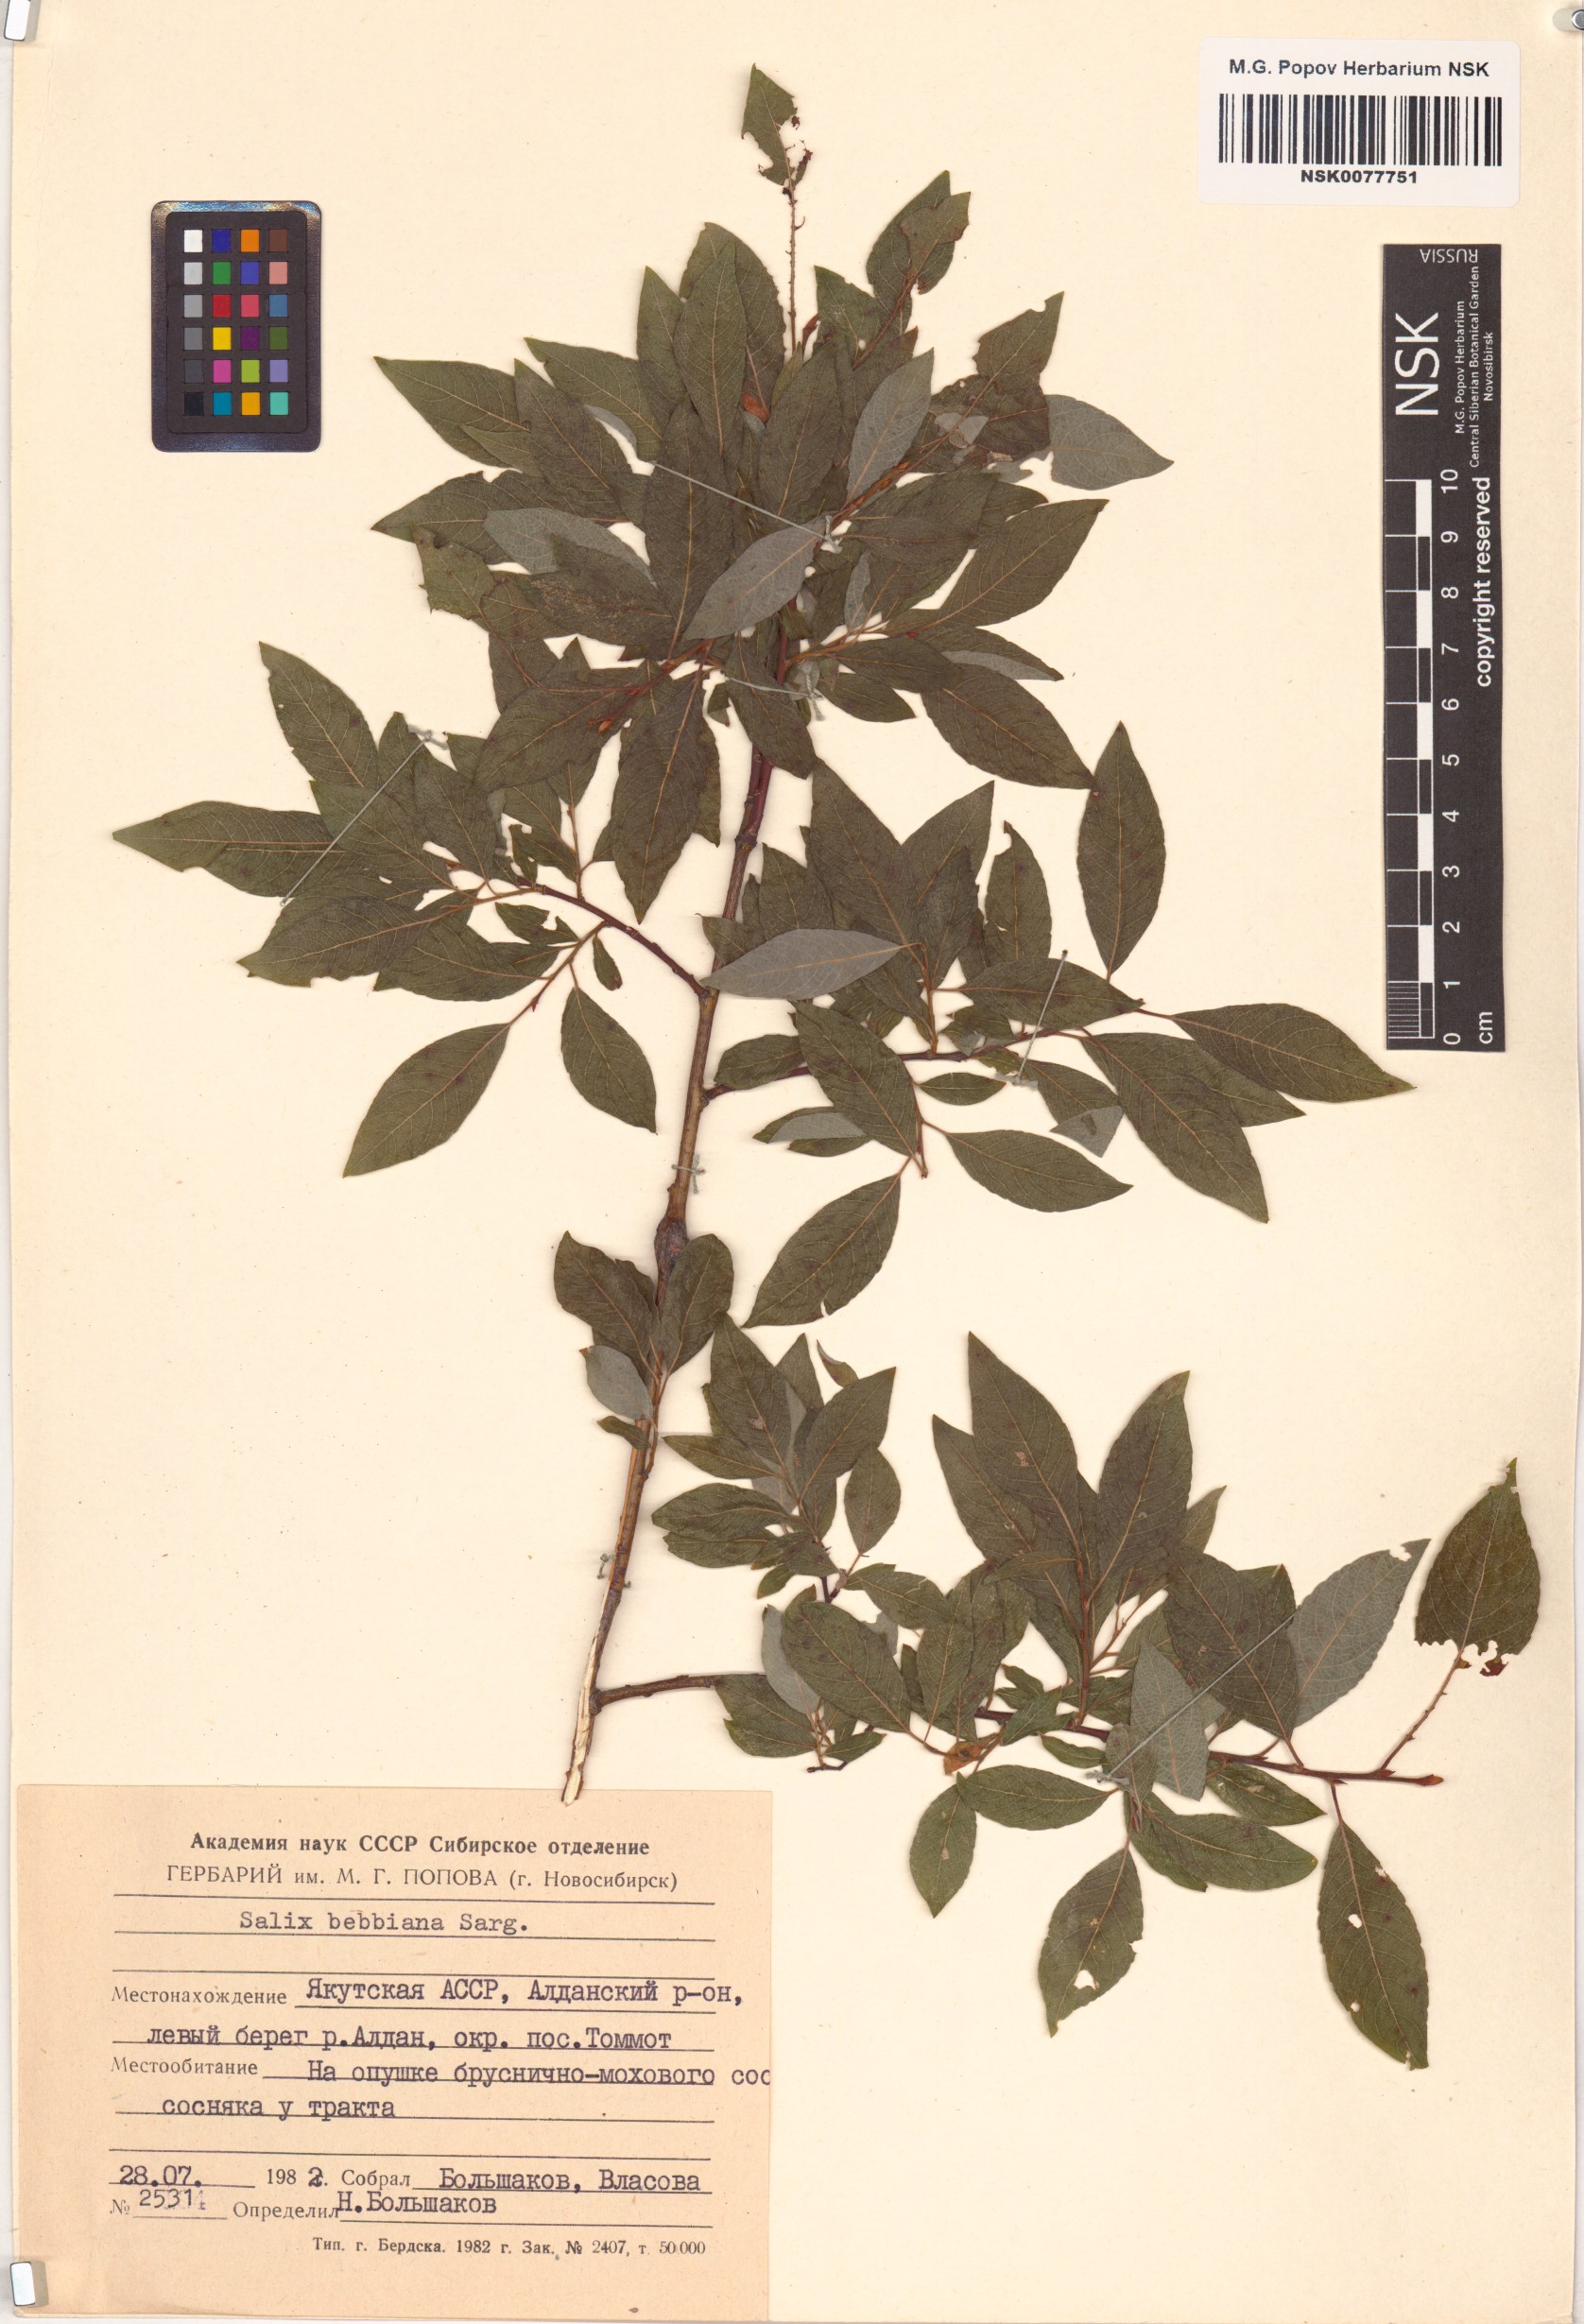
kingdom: Plantae
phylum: Tracheophyta
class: Magnoliopsida
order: Malpighiales
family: Salicaceae
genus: Salix
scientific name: Salix bebbiana
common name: Bebb's willow
